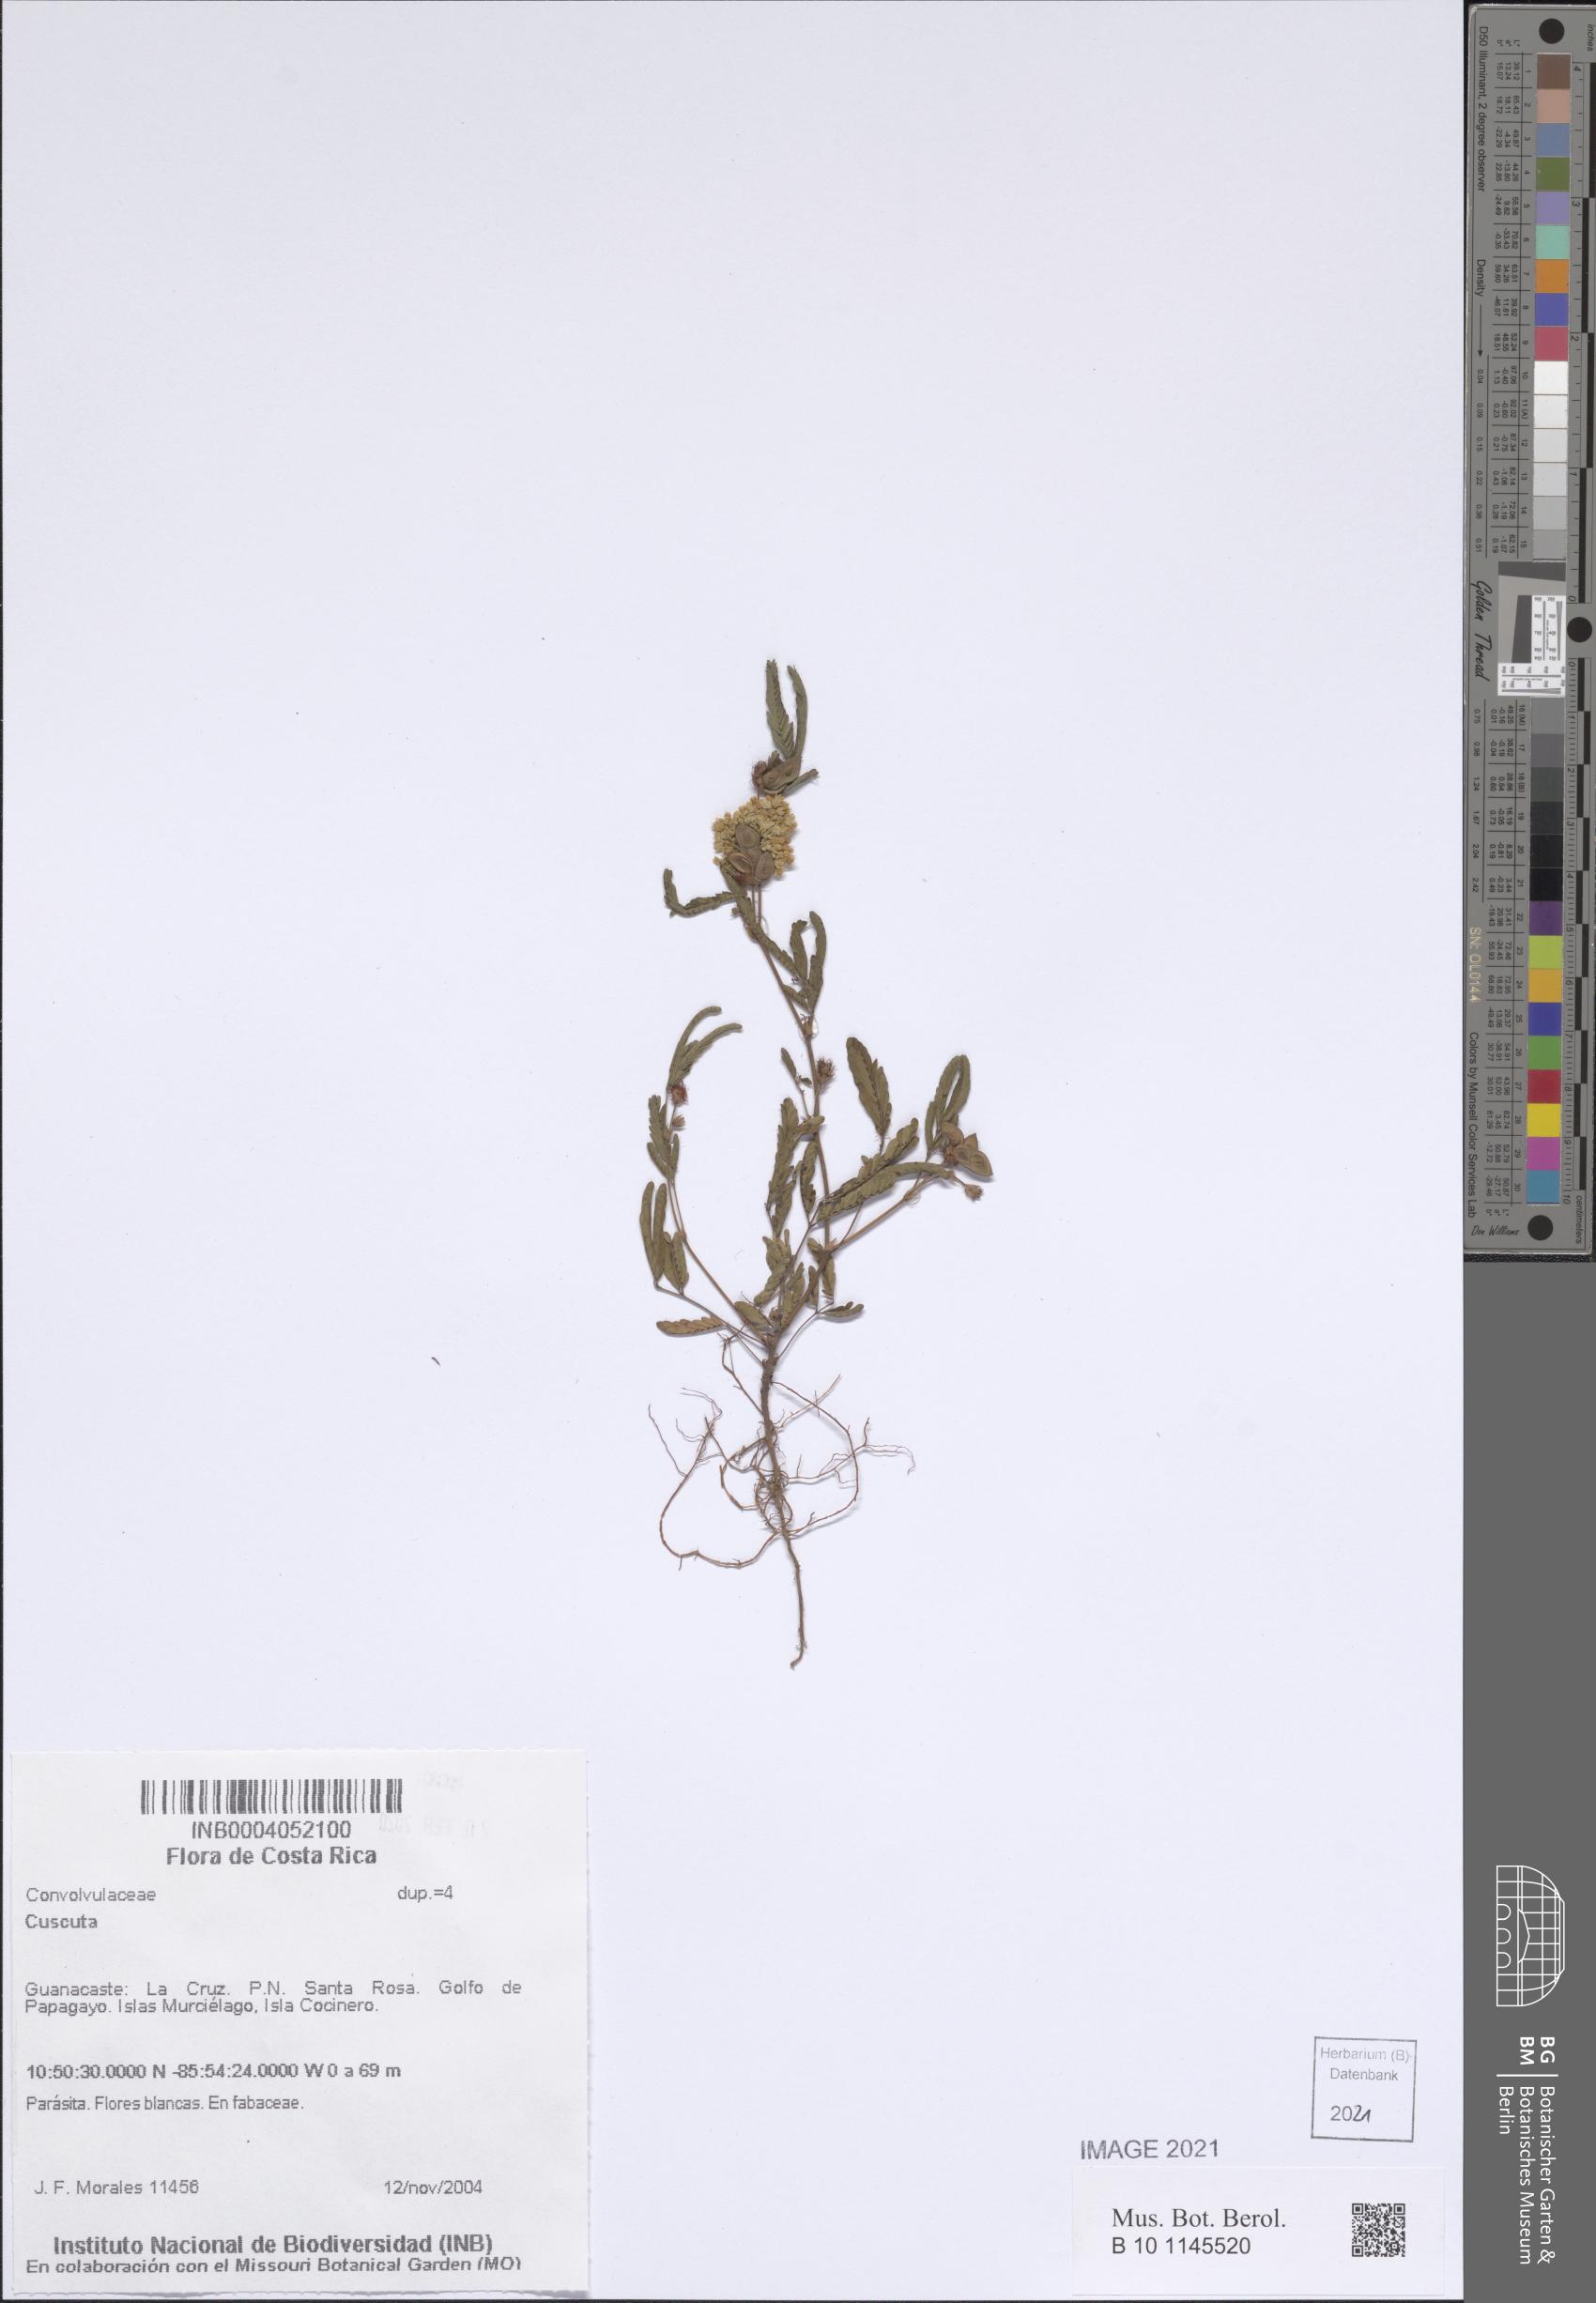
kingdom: Plantae
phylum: Tracheophyta
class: Magnoliopsida
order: Solanales
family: Convolvulaceae
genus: Cuscuta
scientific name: Cuscuta
